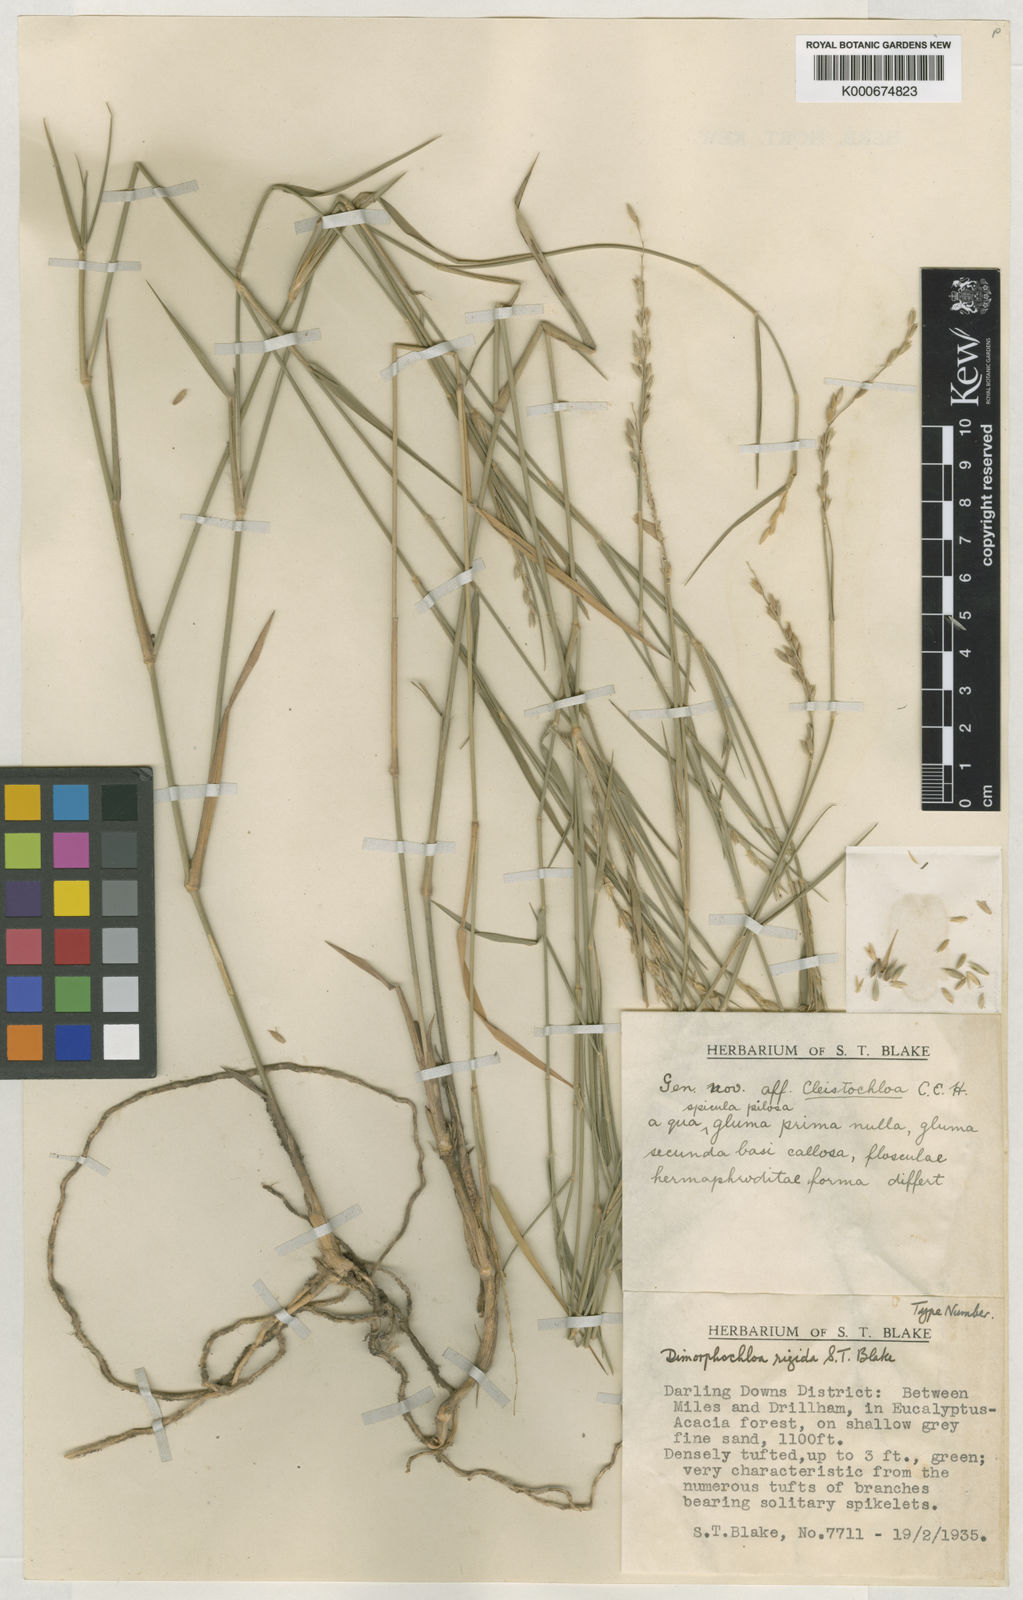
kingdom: Plantae
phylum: Tracheophyta
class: Liliopsida
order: Poales
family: Poaceae
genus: Dimorphochloa
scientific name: Dimorphochloa rigida
